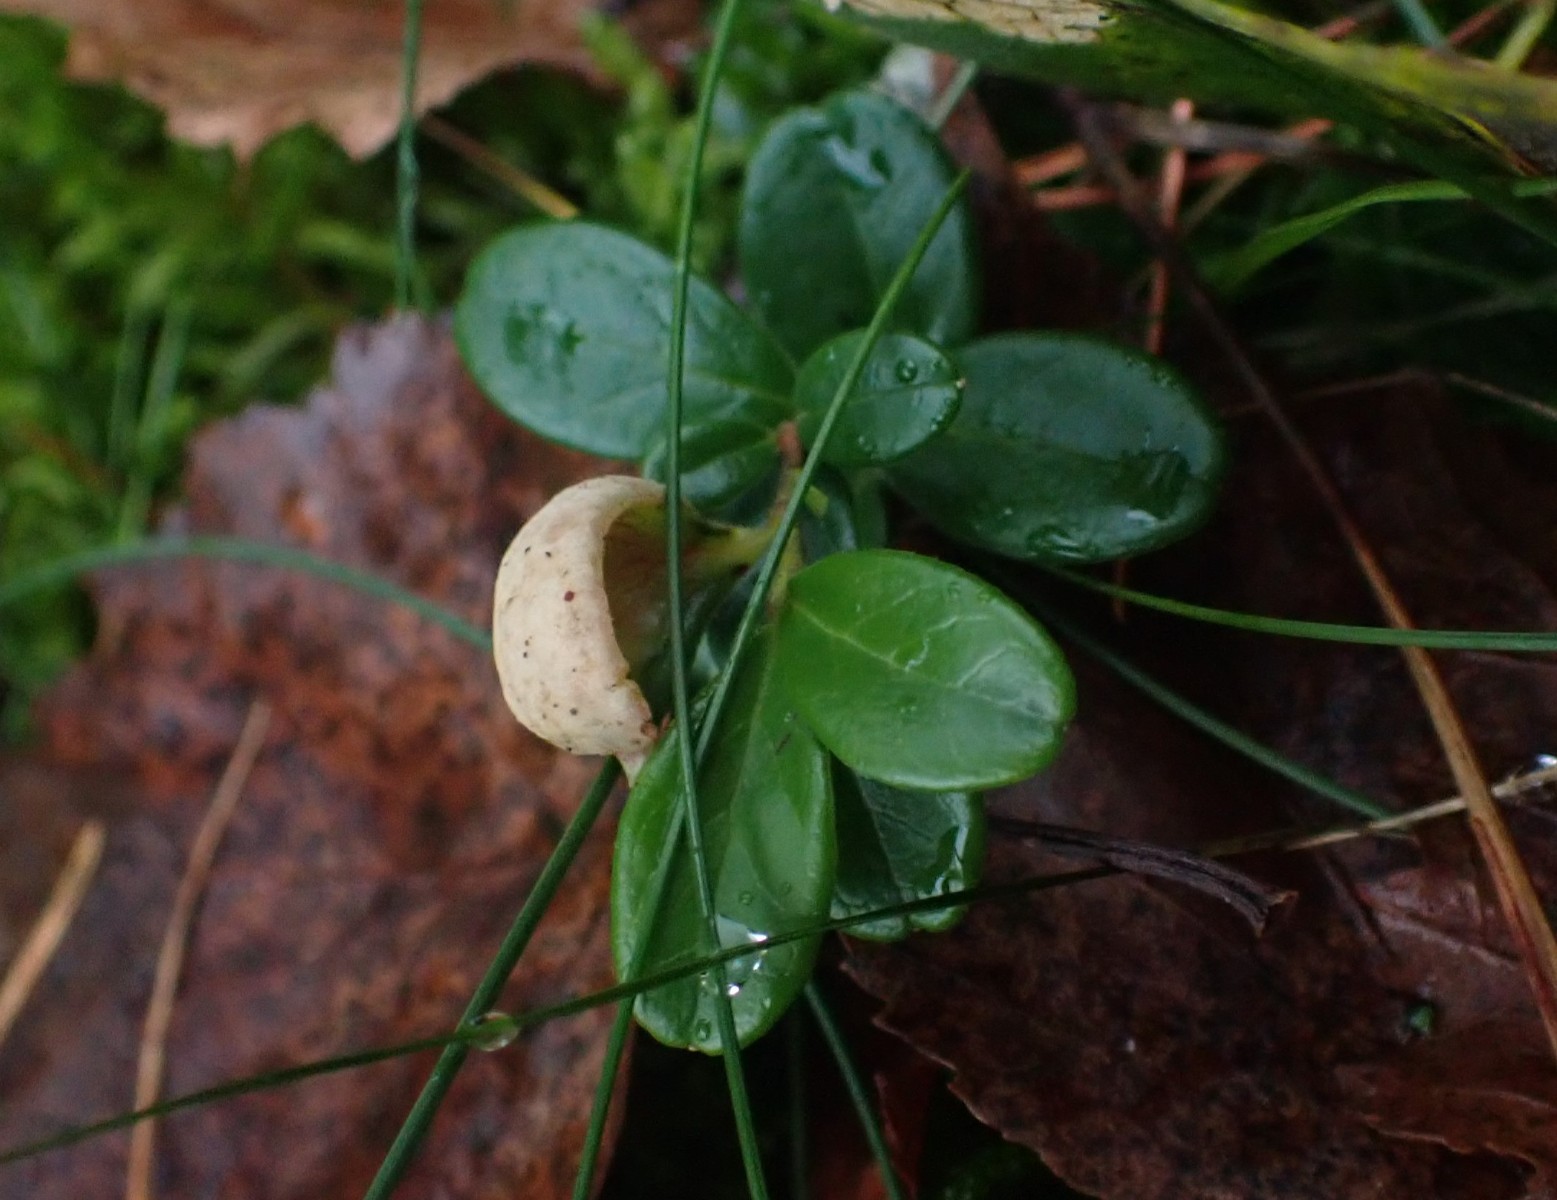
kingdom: Fungi
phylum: Basidiomycota
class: Exobasidiomycetes
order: Exobasidiales
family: Exobasidiaceae
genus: Exobasidium
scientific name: Exobasidium vaccinii
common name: tyttebærblad-bøllesvamp
